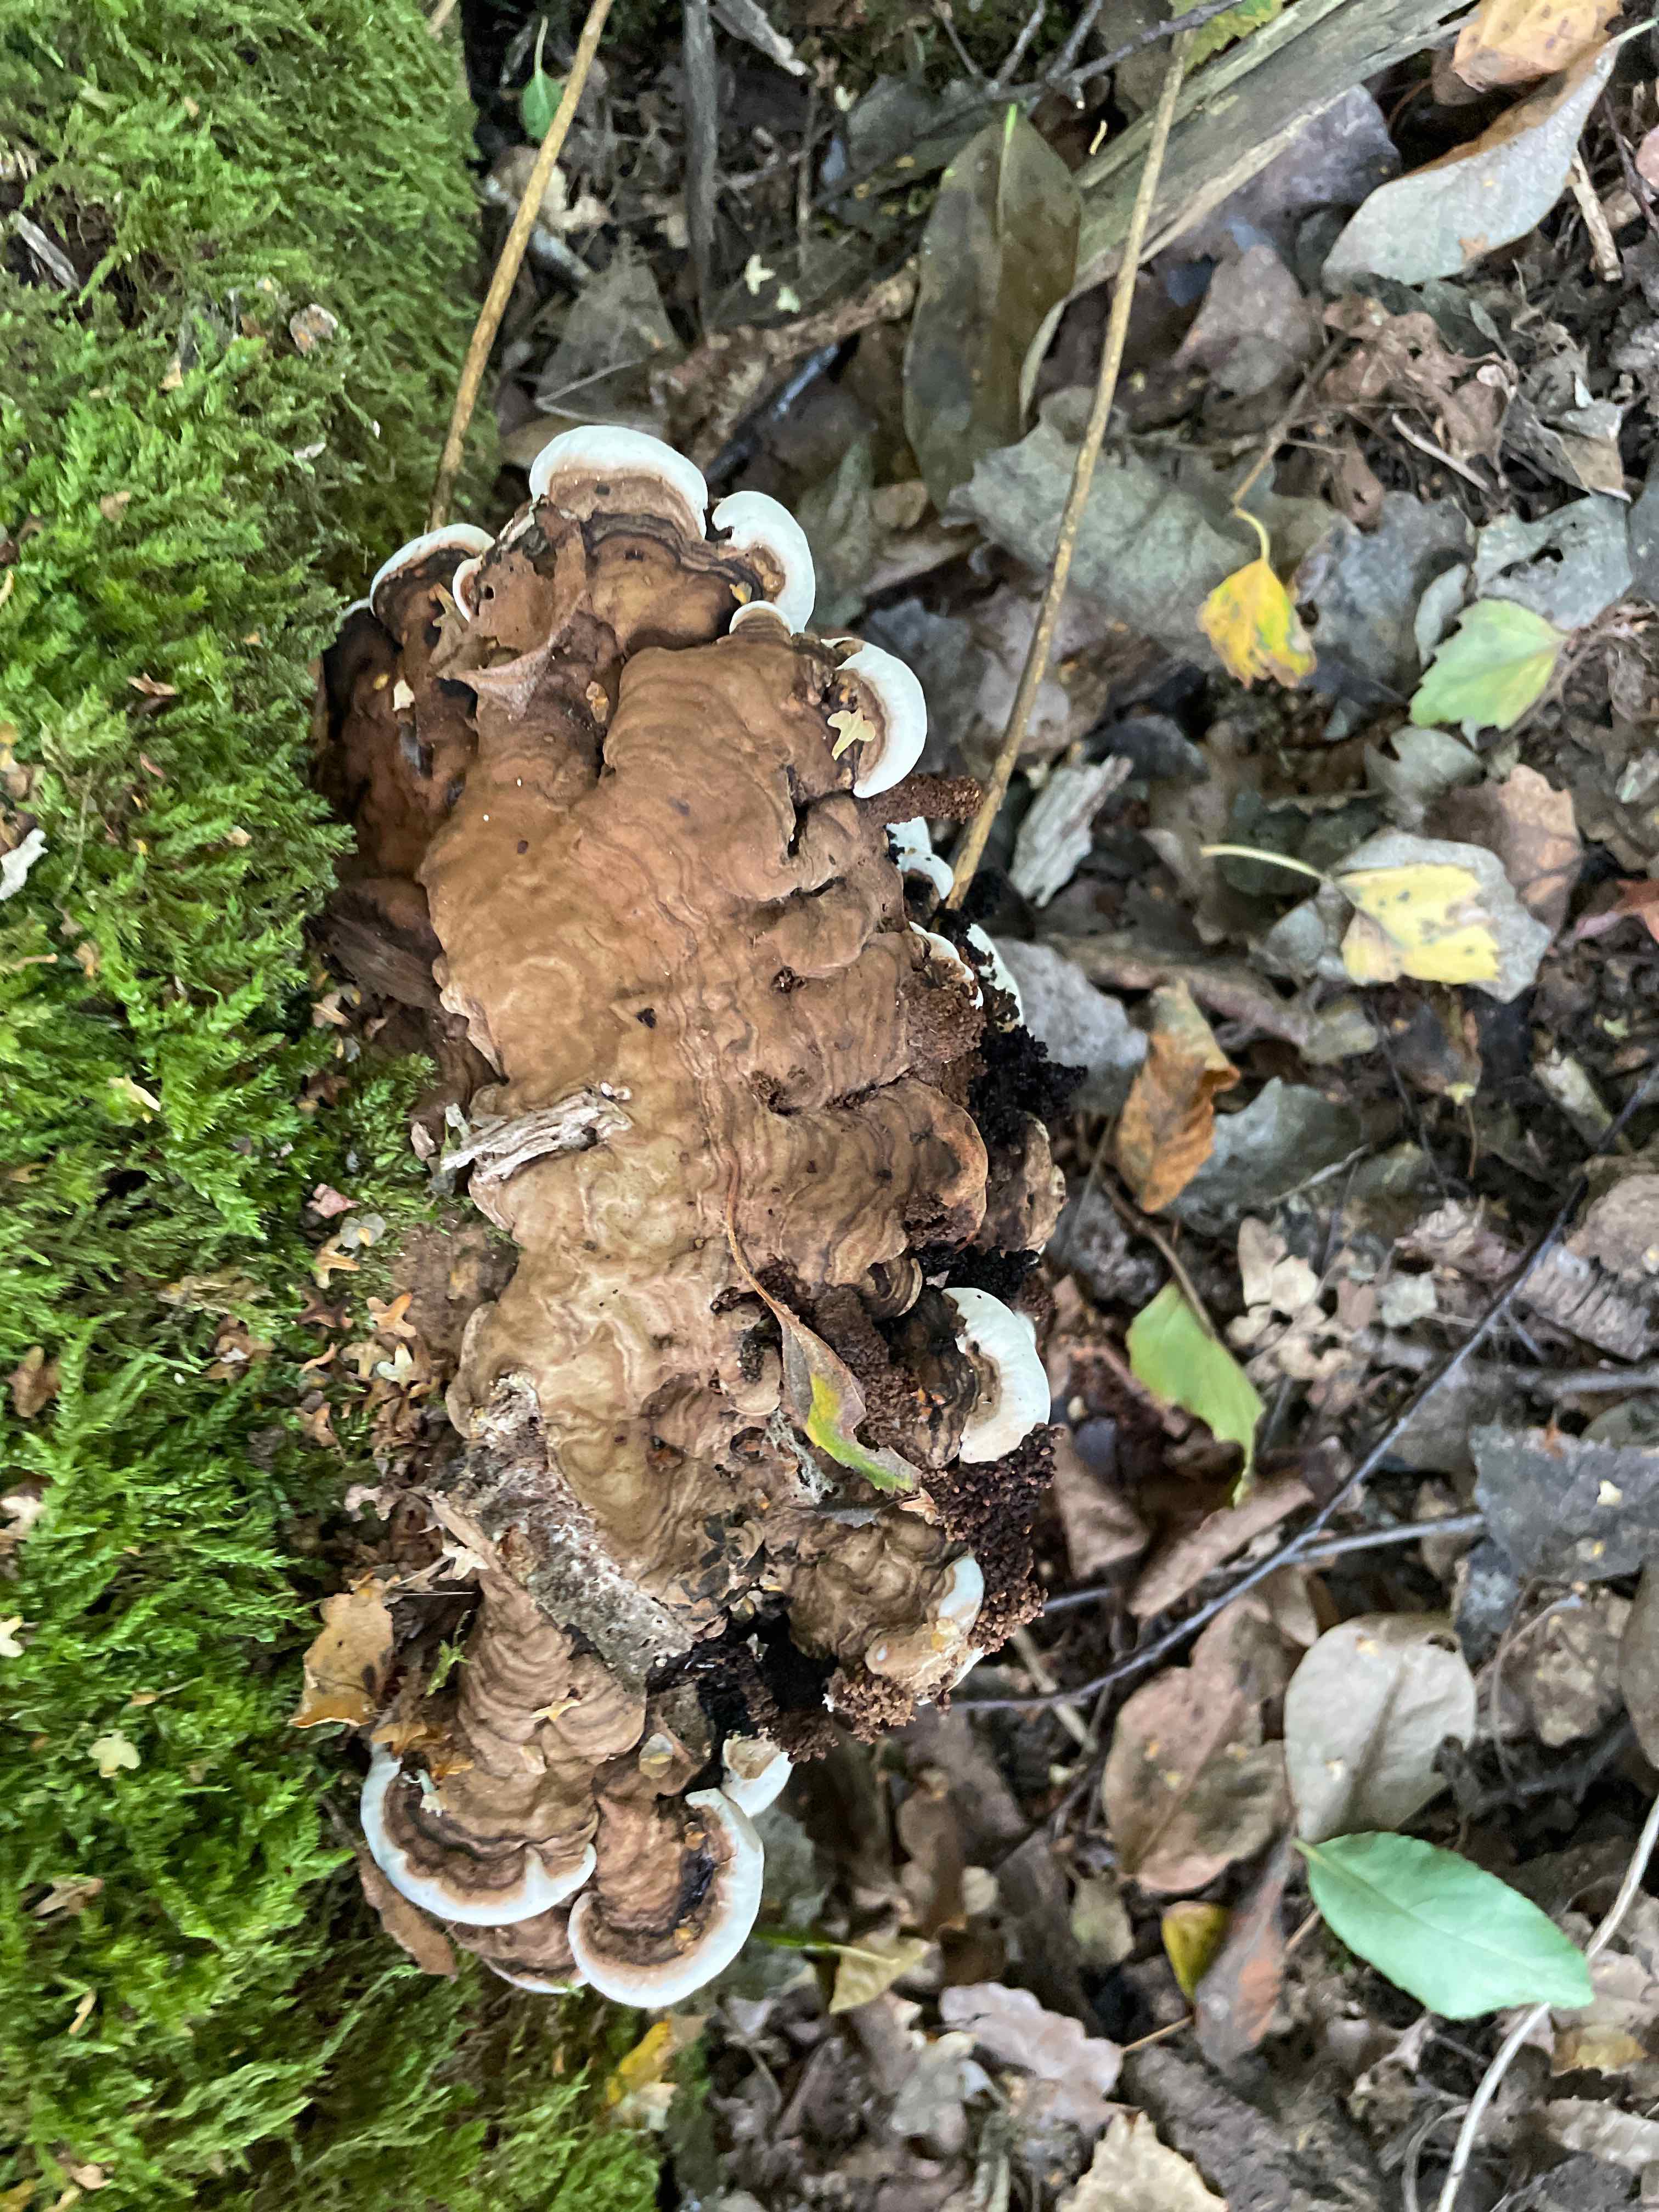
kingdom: Fungi
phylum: Basidiomycota
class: Agaricomycetes
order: Polyporales
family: Polyporaceae
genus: Ganoderma
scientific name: Ganoderma applanatum
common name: flad lakporesvamp
